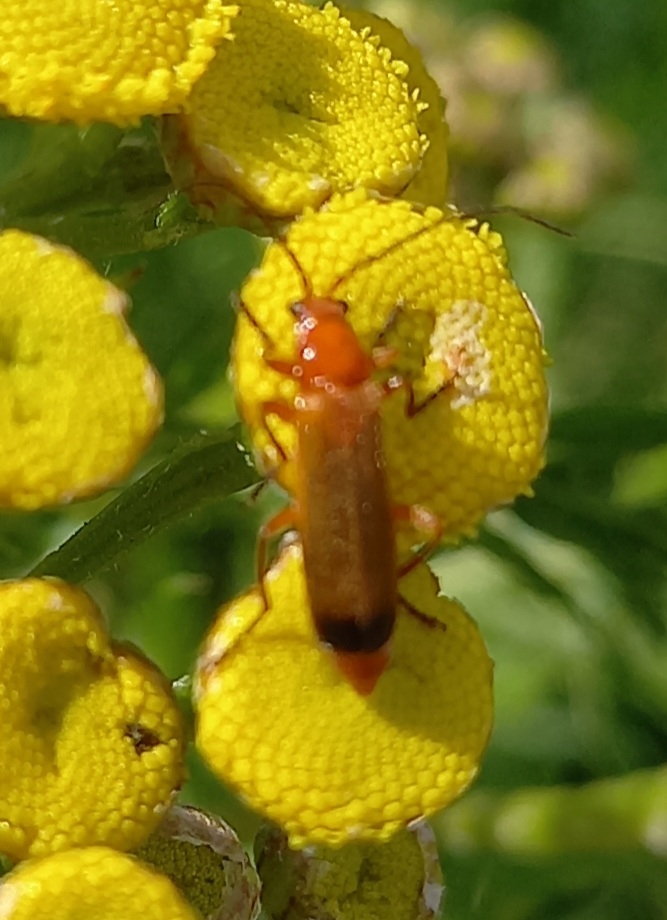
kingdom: Animalia
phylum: Arthropoda
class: Insecta
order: Coleoptera
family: Cantharidae
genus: Rhagonycha
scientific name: Rhagonycha fulva
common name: Præstebille
